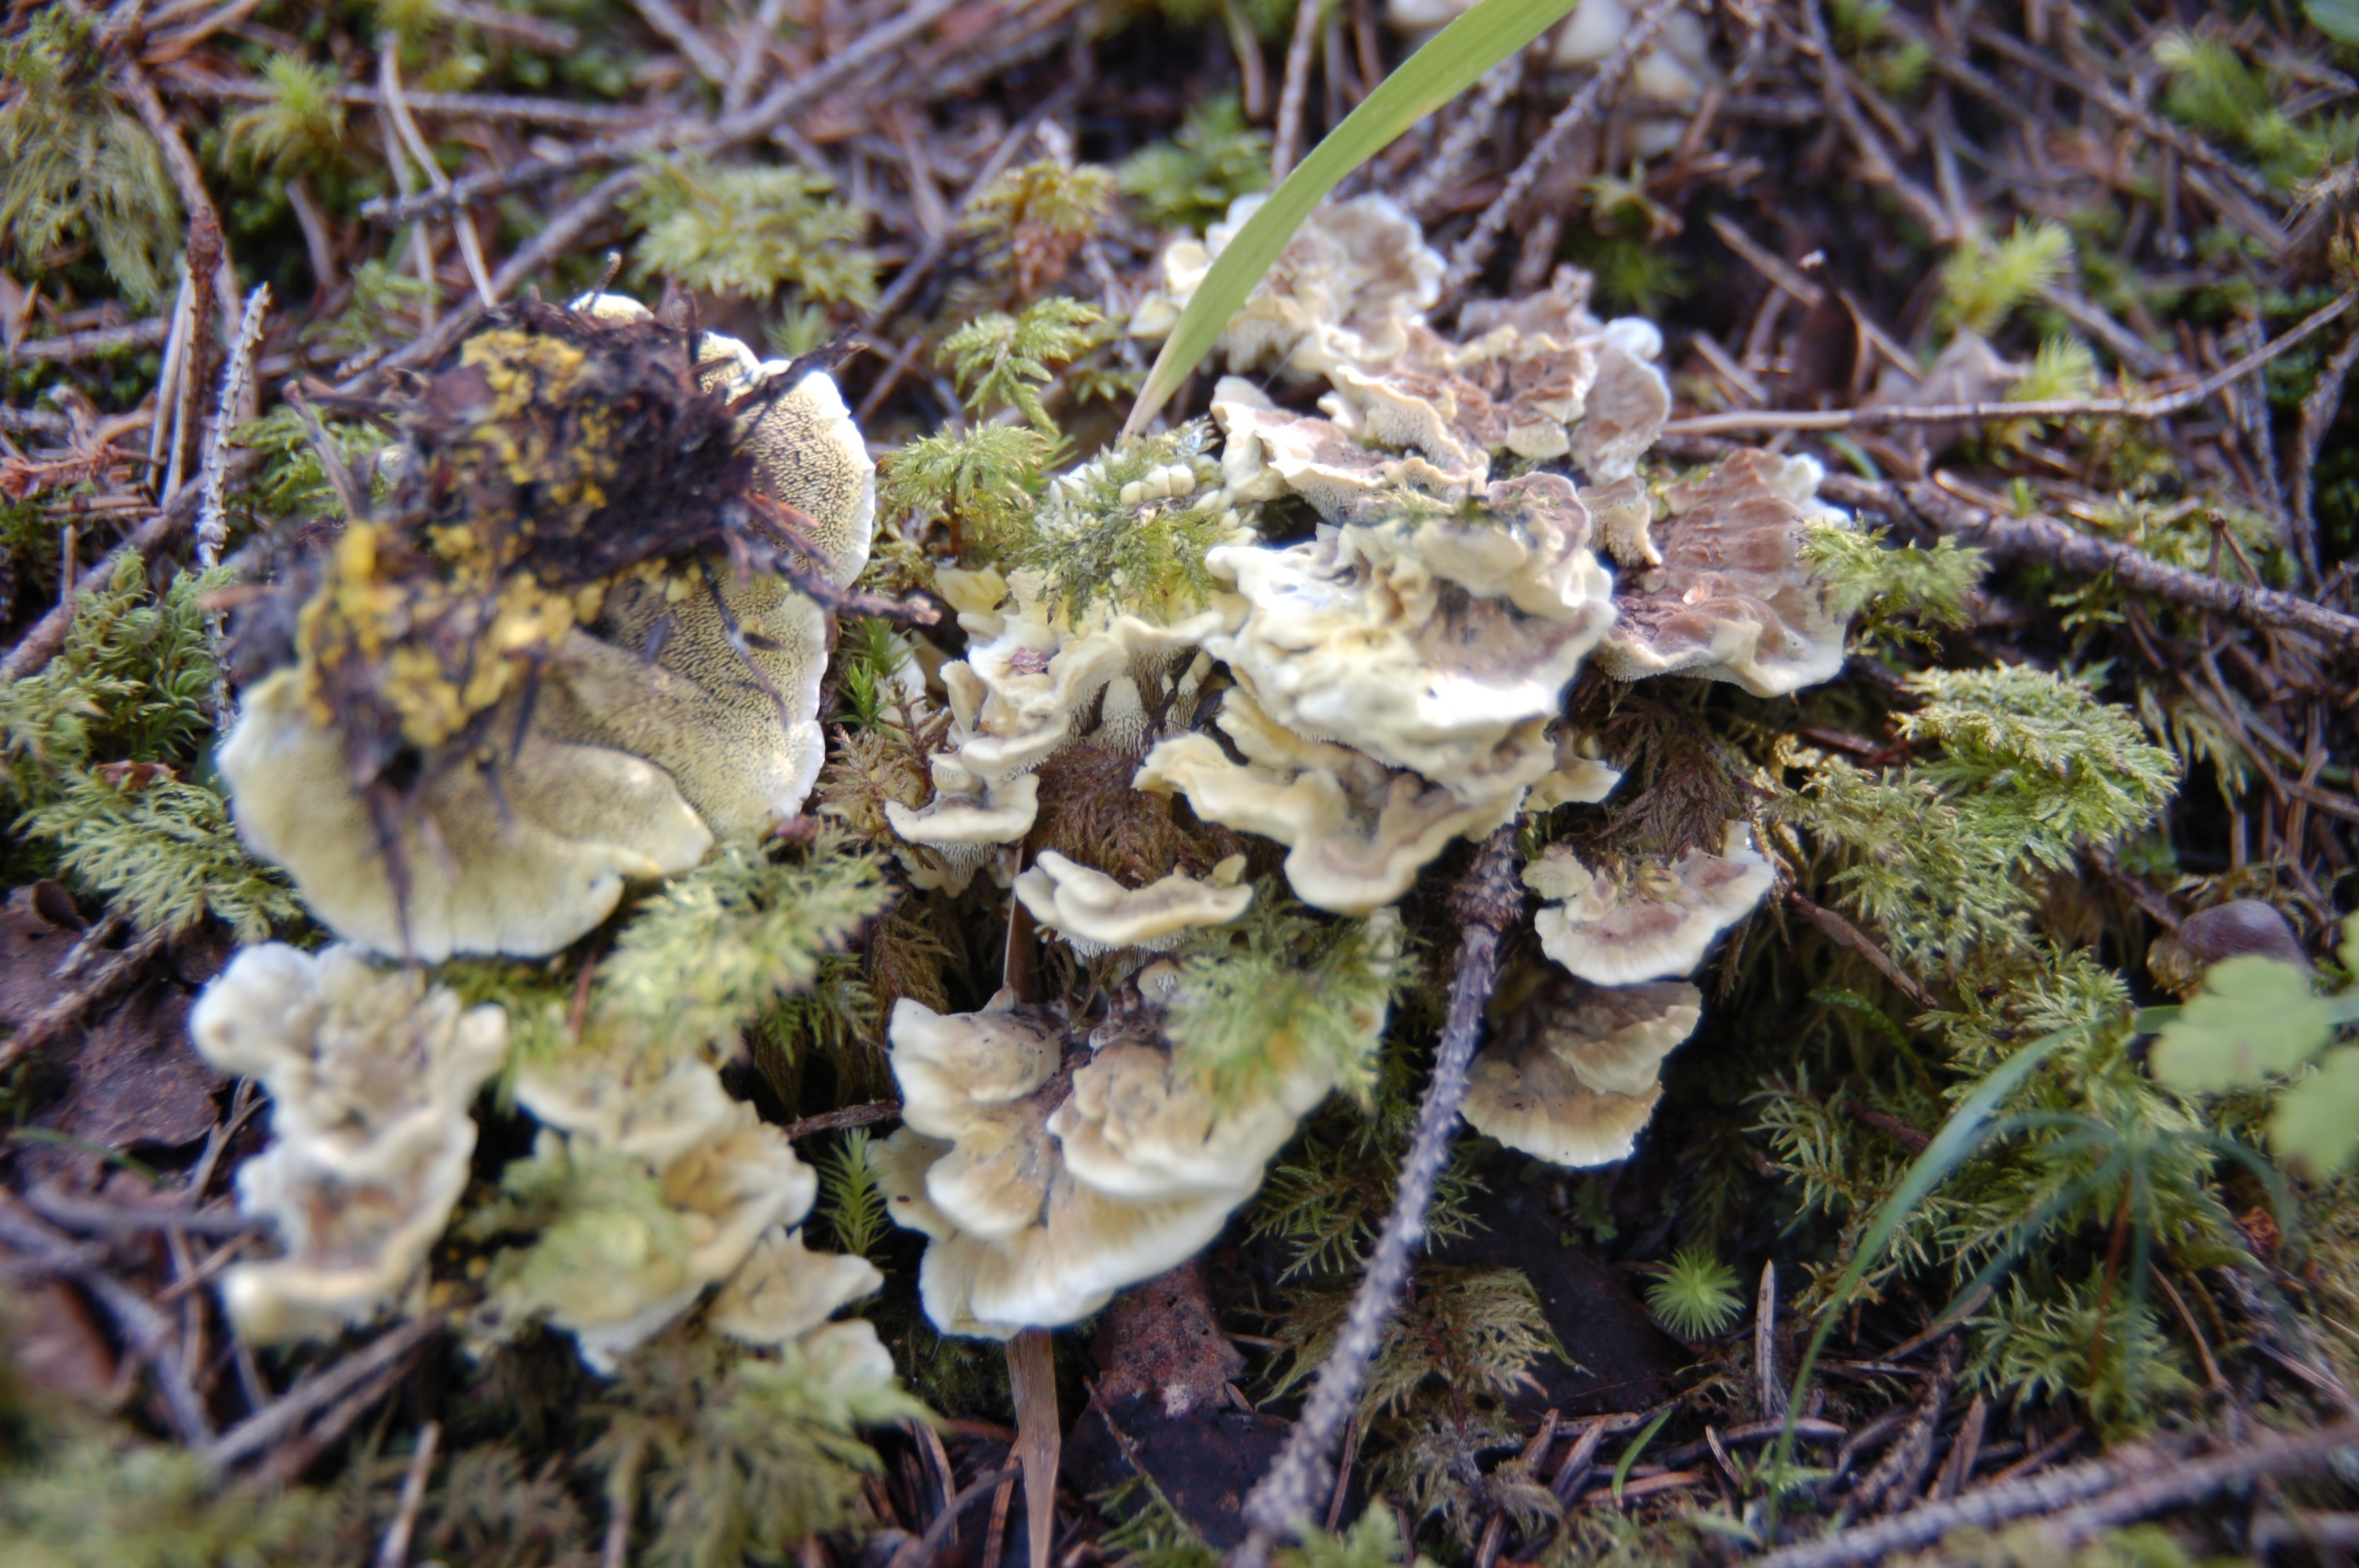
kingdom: Fungi
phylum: Basidiomycota
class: Agaricomycetes
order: Thelephorales
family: Bankeraceae
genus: Hydnellum
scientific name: Hydnellum geogenium
